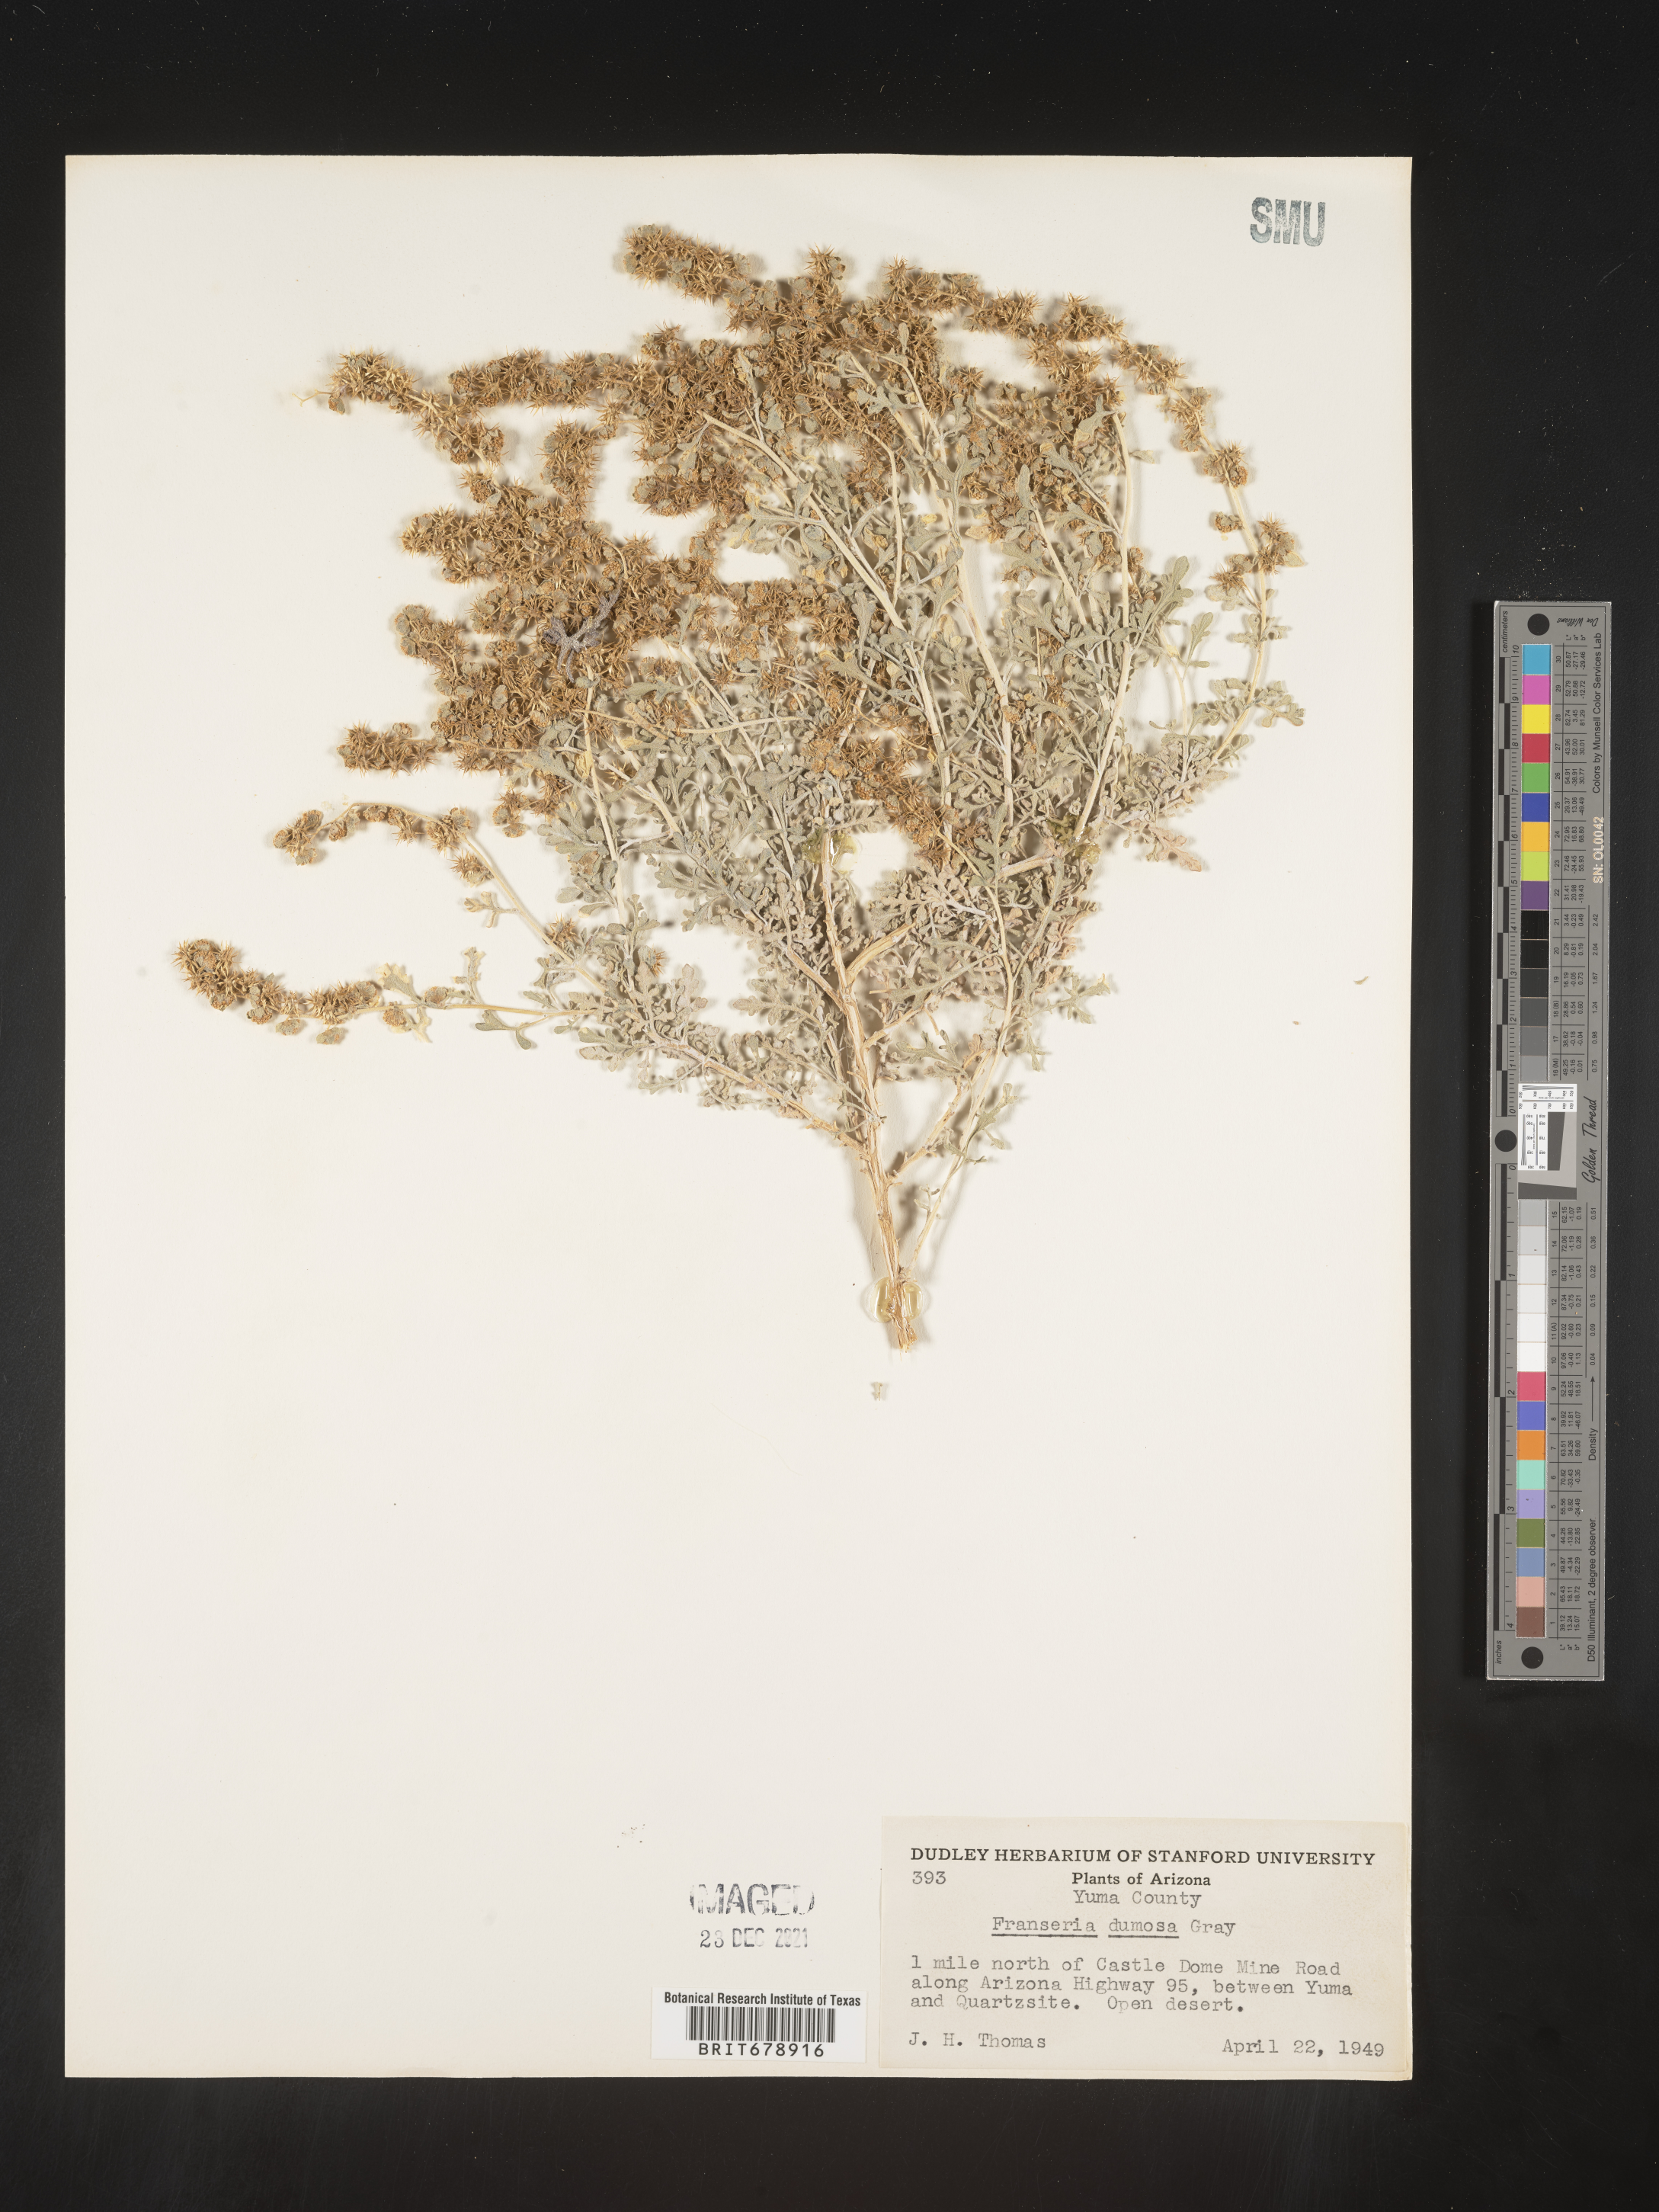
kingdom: Plantae
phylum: Tracheophyta
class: Magnoliopsida
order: Asterales
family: Asteraceae
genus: Ambrosia
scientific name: Ambrosia dumosa
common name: Bur-sage
